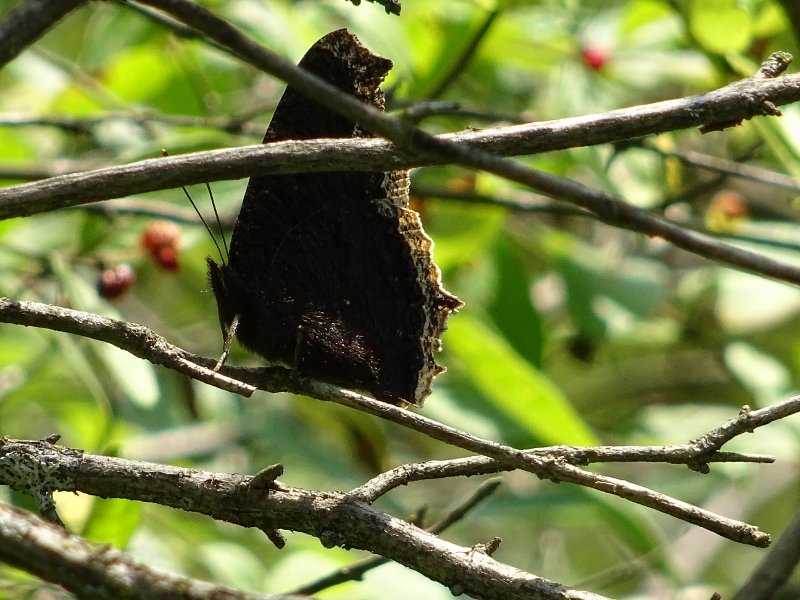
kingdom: Animalia
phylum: Arthropoda
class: Insecta
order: Lepidoptera
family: Nymphalidae
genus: Nymphalis
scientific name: Nymphalis antiopa
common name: Mourning Cloak
